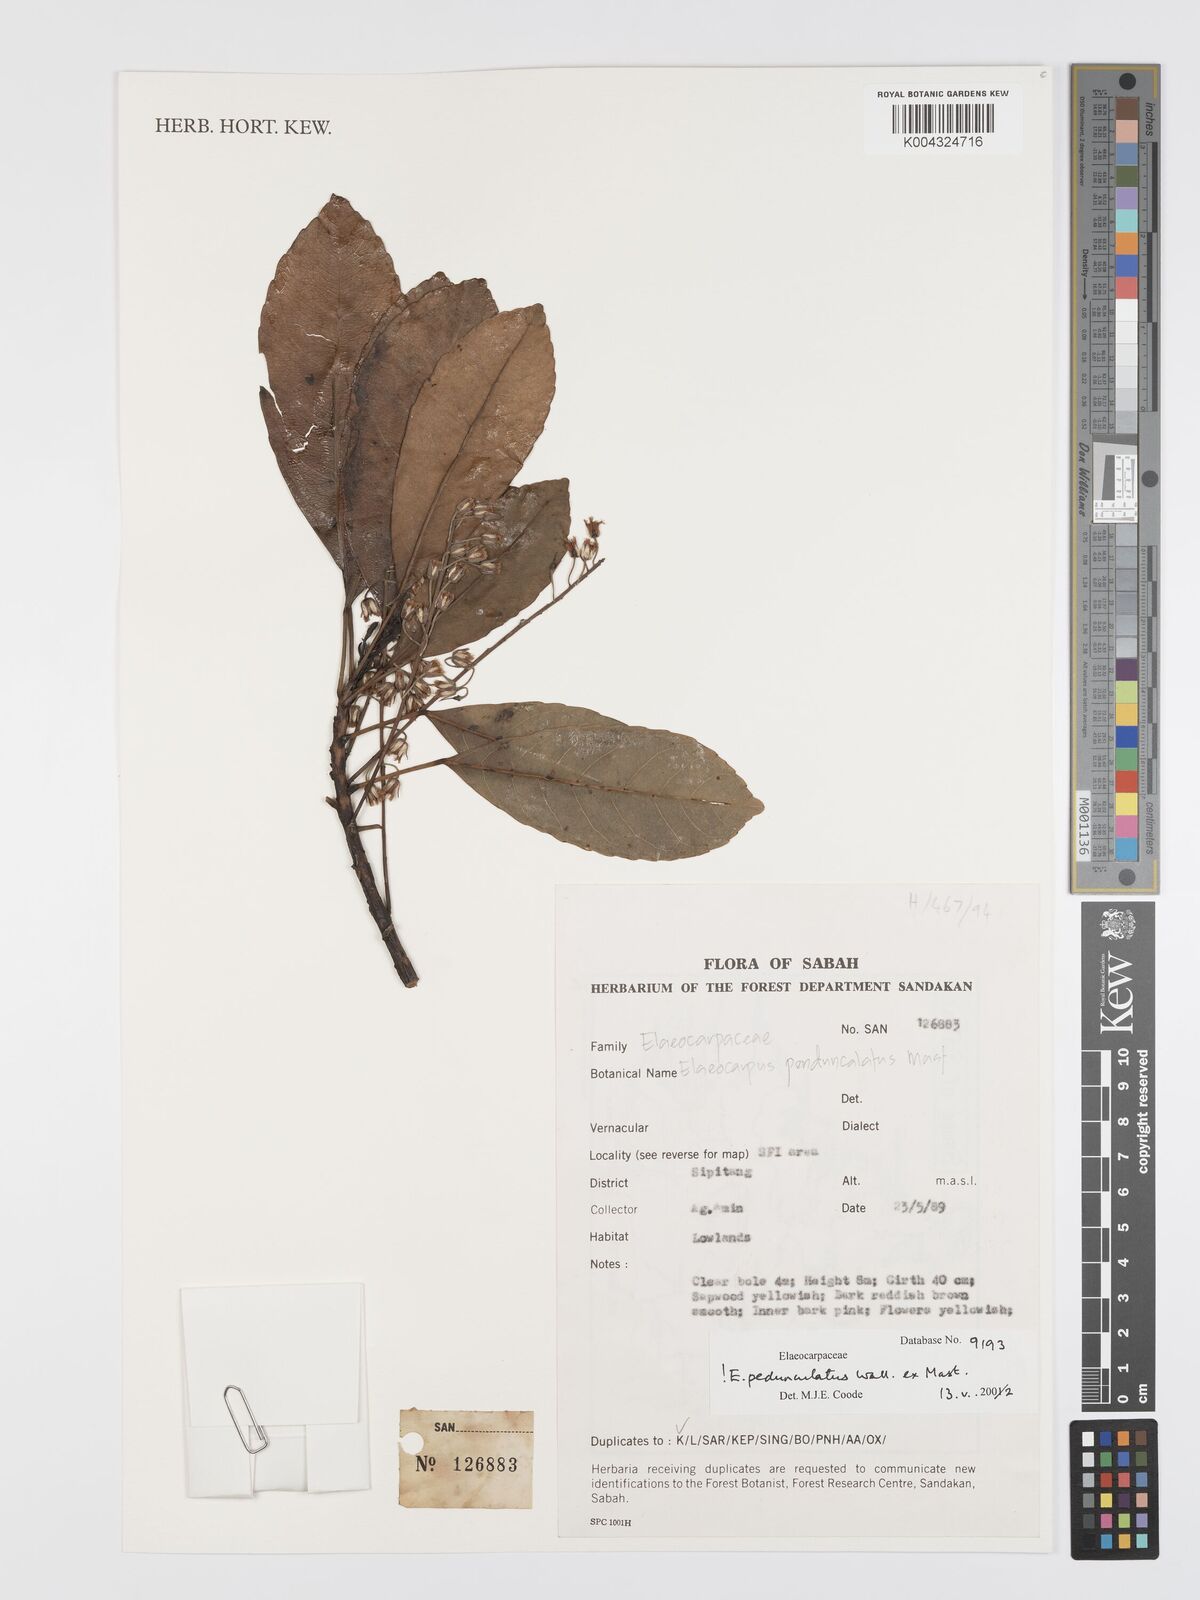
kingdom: Plantae
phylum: Tracheophyta
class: Magnoliopsida
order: Oxalidales
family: Elaeocarpaceae
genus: Elaeocarpus
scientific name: Elaeocarpus pedunculatus
